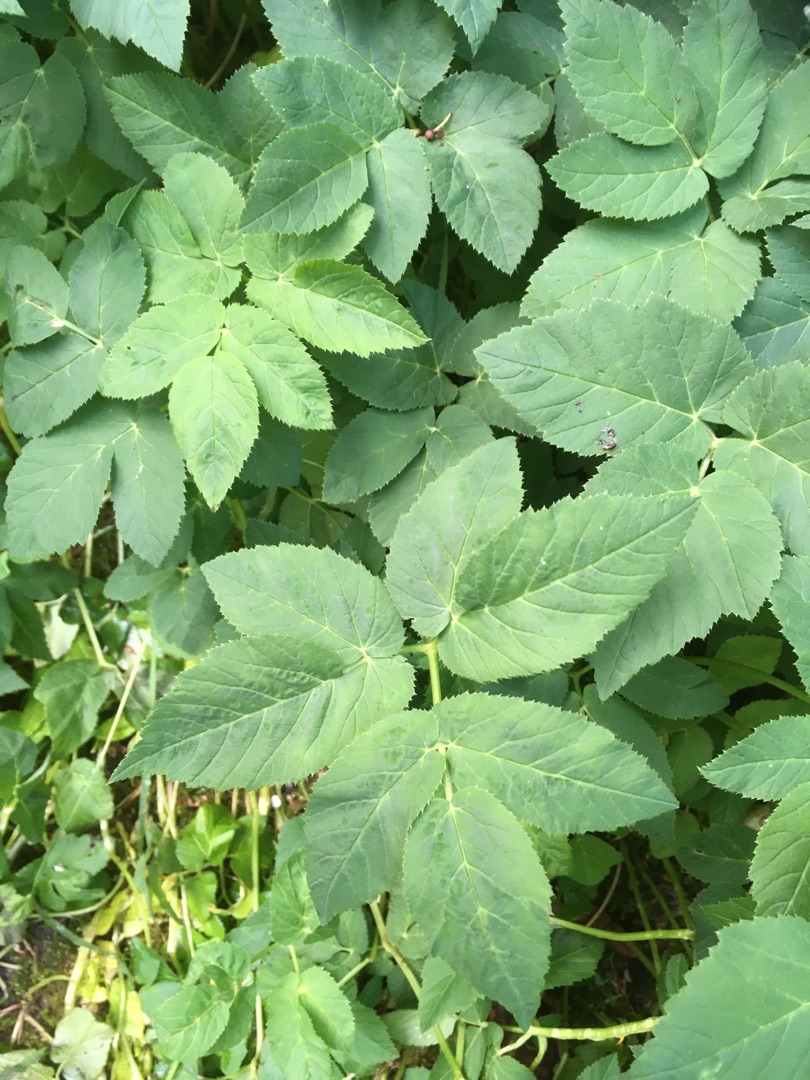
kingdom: Plantae
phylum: Tracheophyta
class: Magnoliopsida
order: Apiales
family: Apiaceae
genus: Aegopodium
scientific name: Aegopodium podagraria
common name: Skvalderkål
